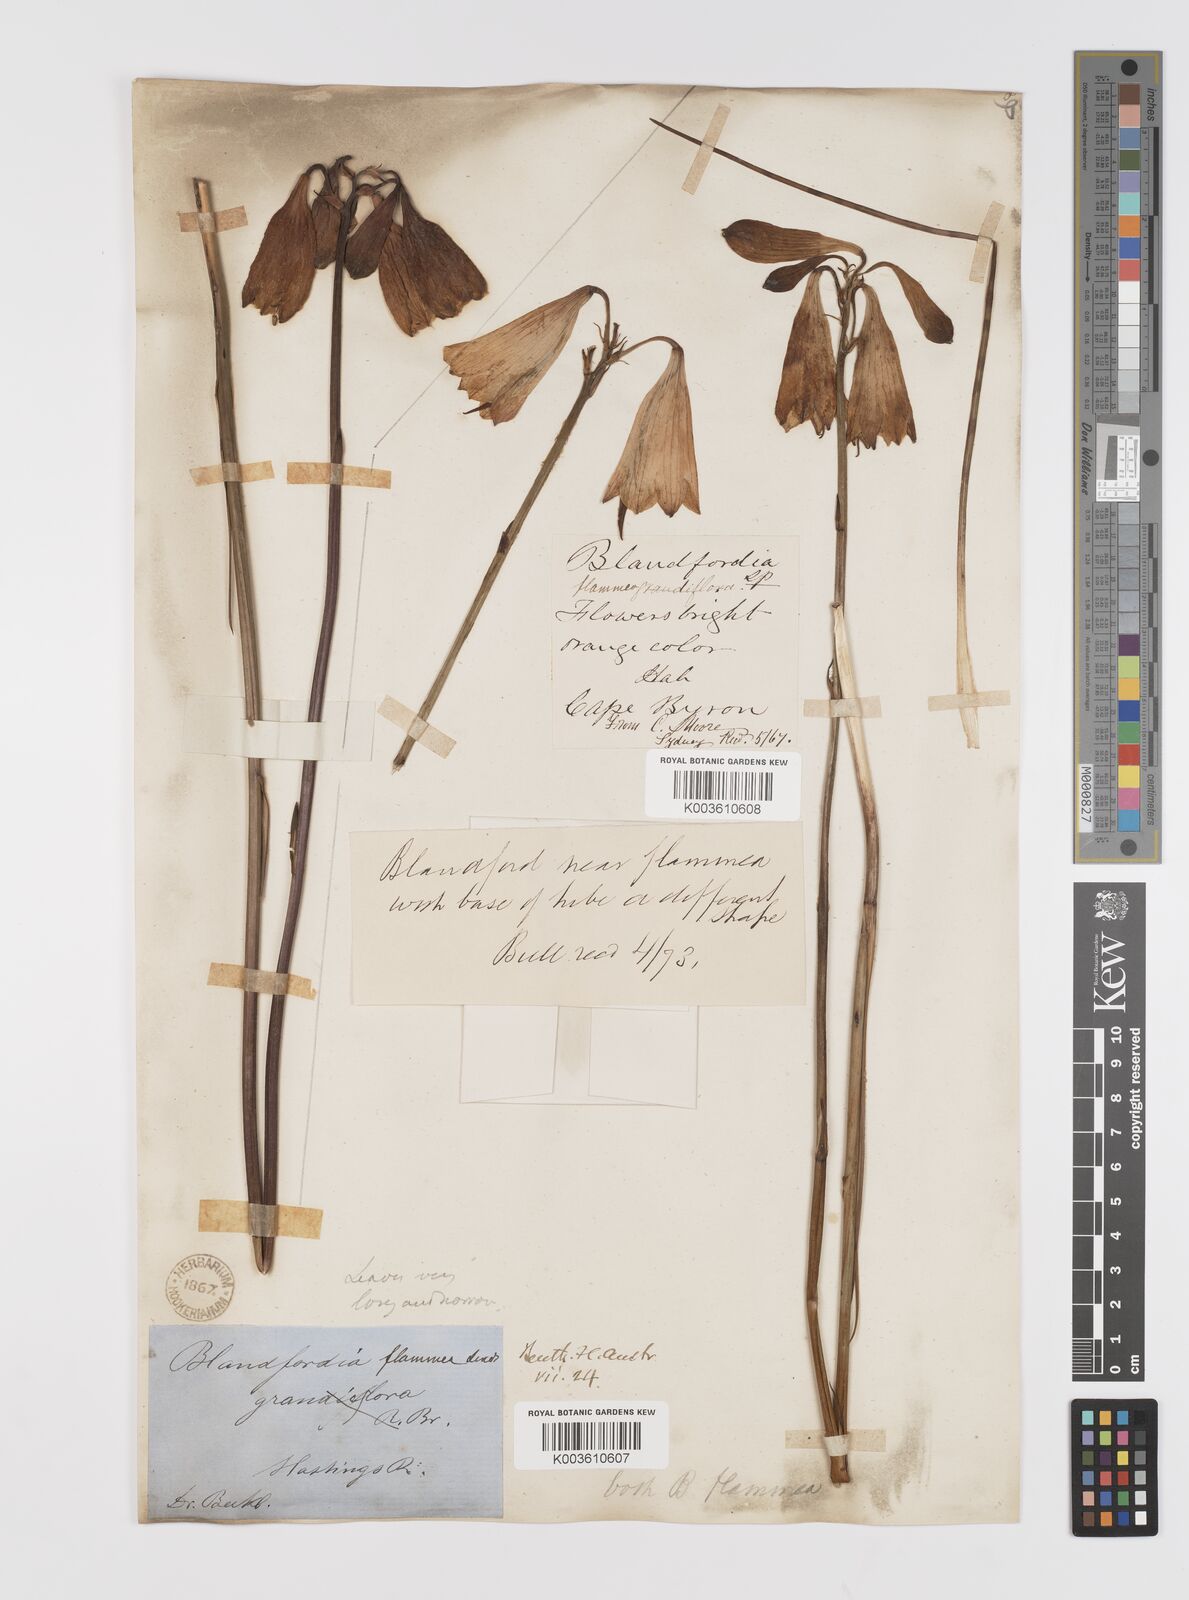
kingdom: Plantae
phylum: Tracheophyta
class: Liliopsida
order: Asparagales
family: Blandfordiaceae
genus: Blandfordia
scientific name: Blandfordia grandiflora
